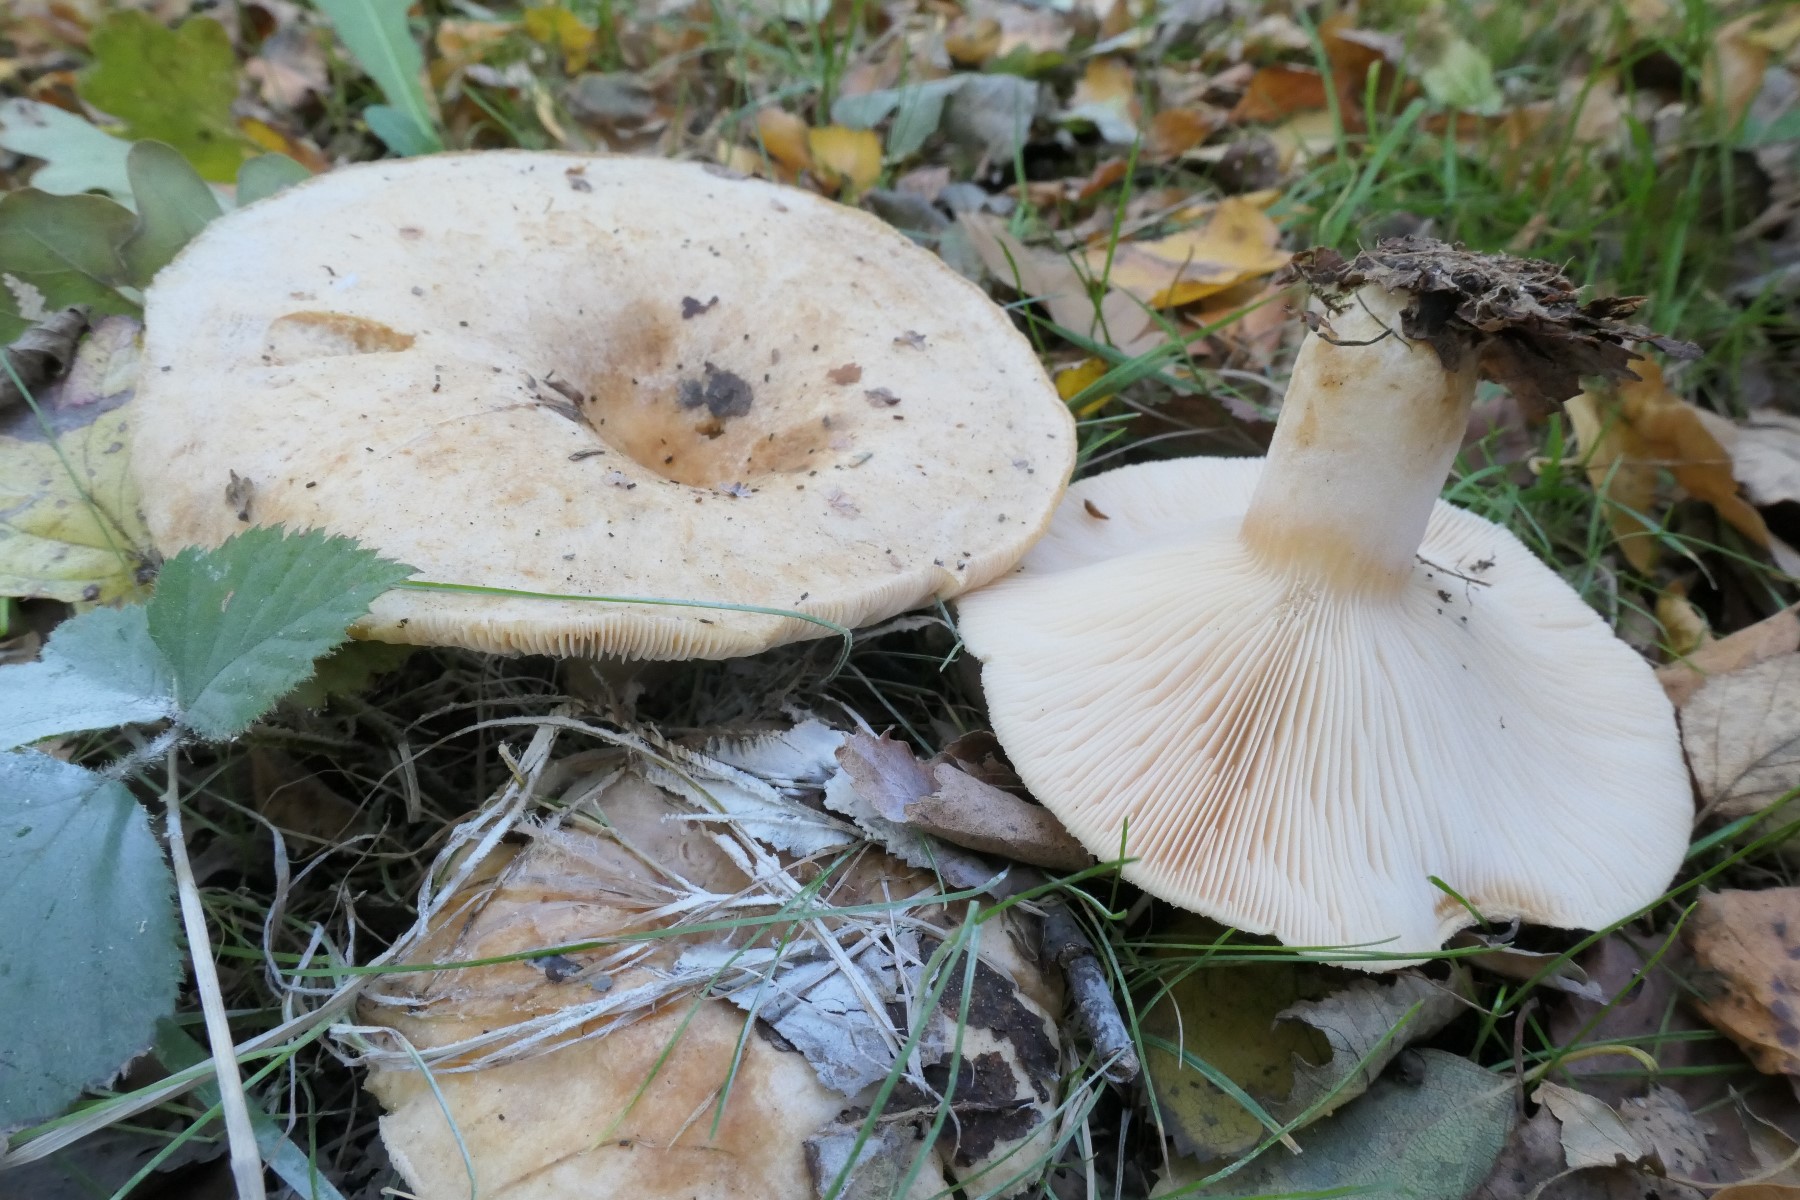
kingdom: Fungi
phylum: Basidiomycota
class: Agaricomycetes
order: Russulales
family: Russulaceae
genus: Lactarius
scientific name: Lactarius pubescens
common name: dunet mælkehat
